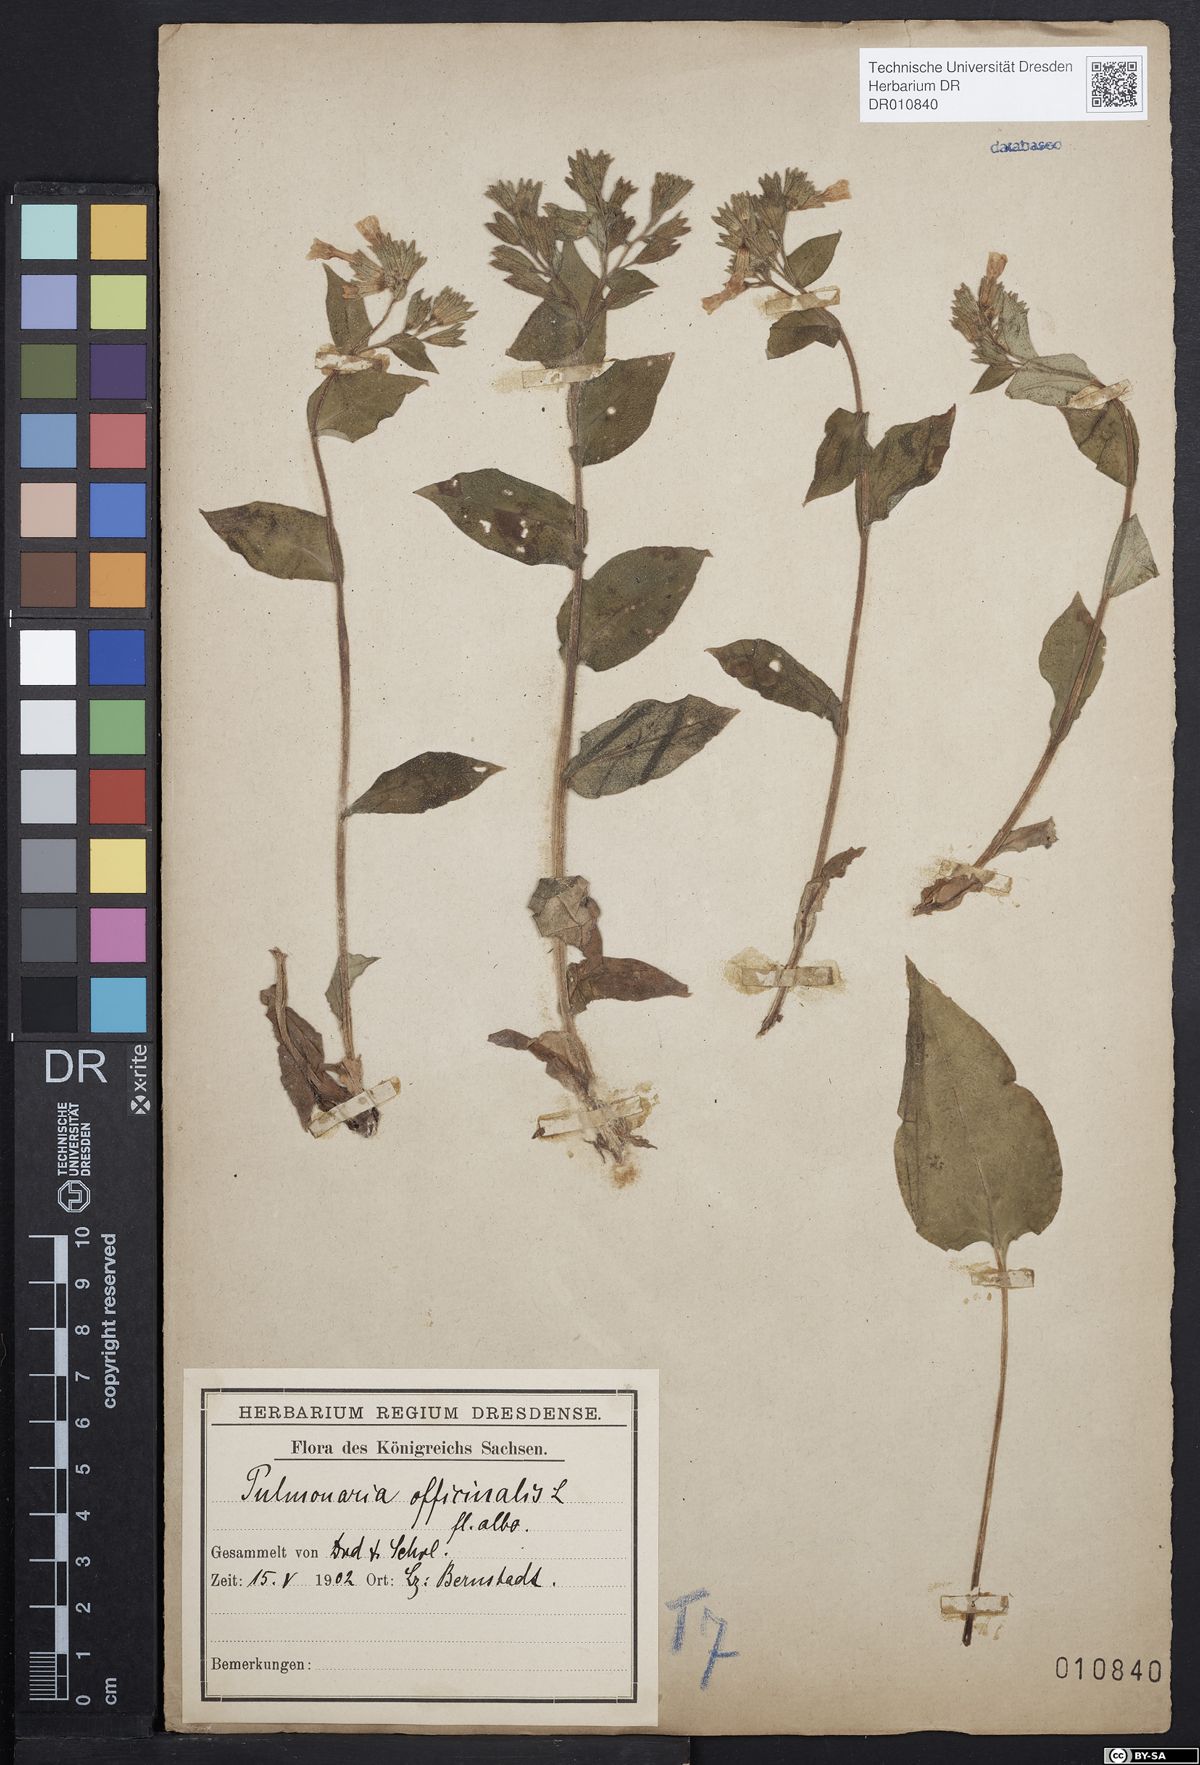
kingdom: Plantae
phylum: Tracheophyta
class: Magnoliopsida
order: Boraginales
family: Boraginaceae
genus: Pulmonaria
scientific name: Pulmonaria obscura
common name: Suffolk lungwort
